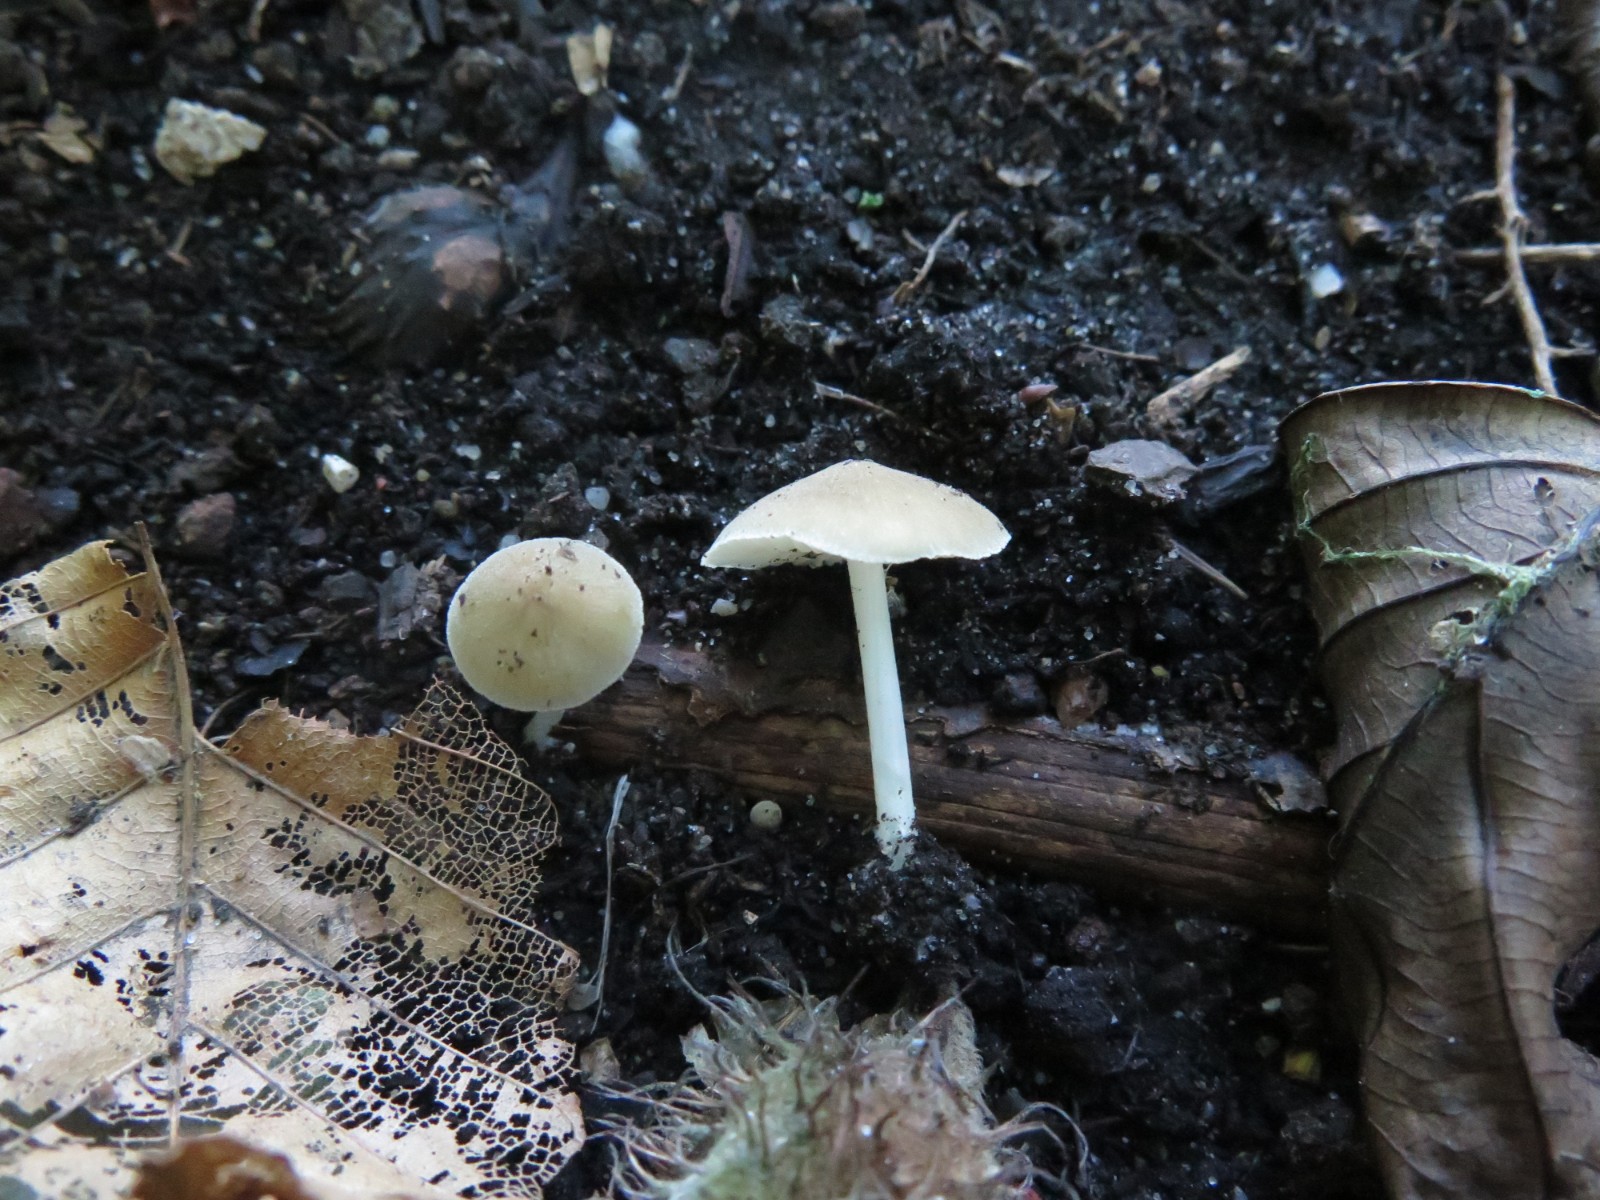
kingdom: Fungi
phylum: Basidiomycota
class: Agaricomycetes
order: Agaricales
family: Porotheleaceae
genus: Hydropodia
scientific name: Hydropodia subalpina
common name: vår-fnugfod
